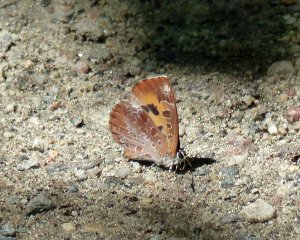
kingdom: Animalia
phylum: Arthropoda
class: Insecta
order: Lepidoptera
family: Lycaenidae
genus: Feniseca
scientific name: Feniseca tarquinius
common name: Harvester
